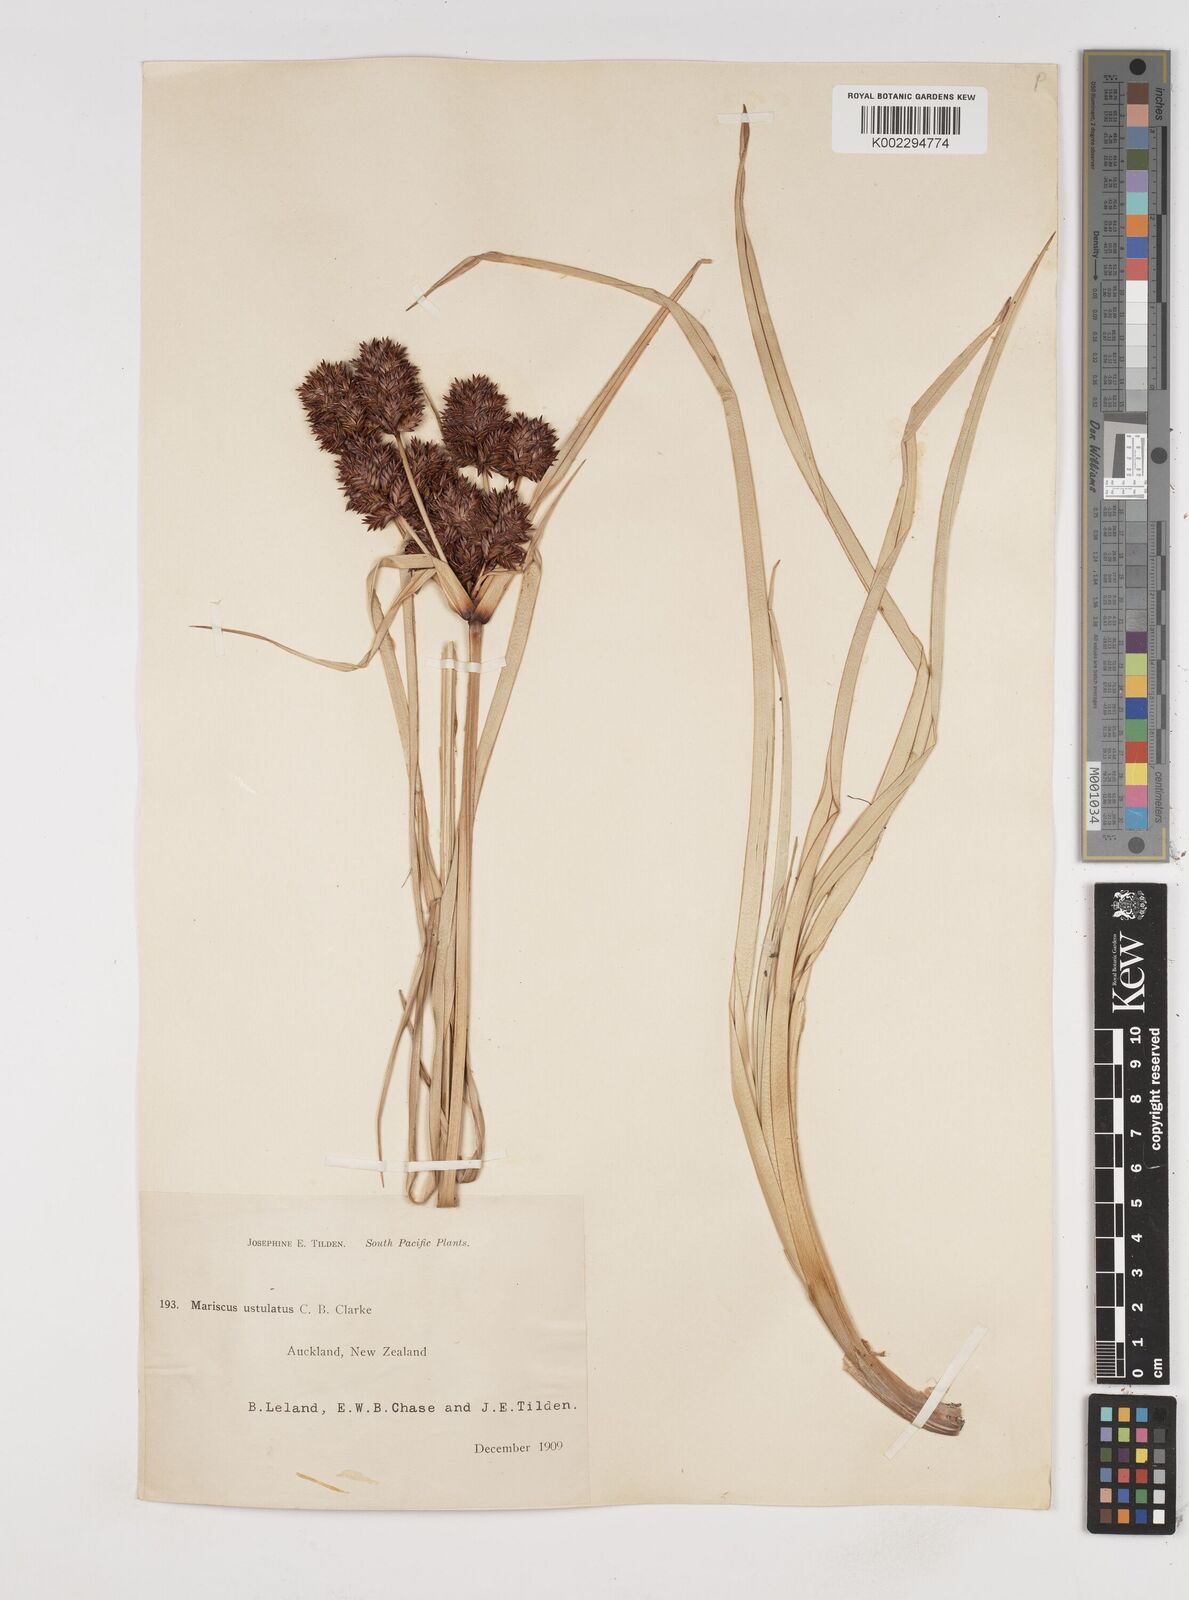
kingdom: Plantae
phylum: Tracheophyta
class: Liliopsida
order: Poales
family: Cyperaceae
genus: Cyperus
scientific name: Cyperus ustulatus
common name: Giant umbrella-sedge
